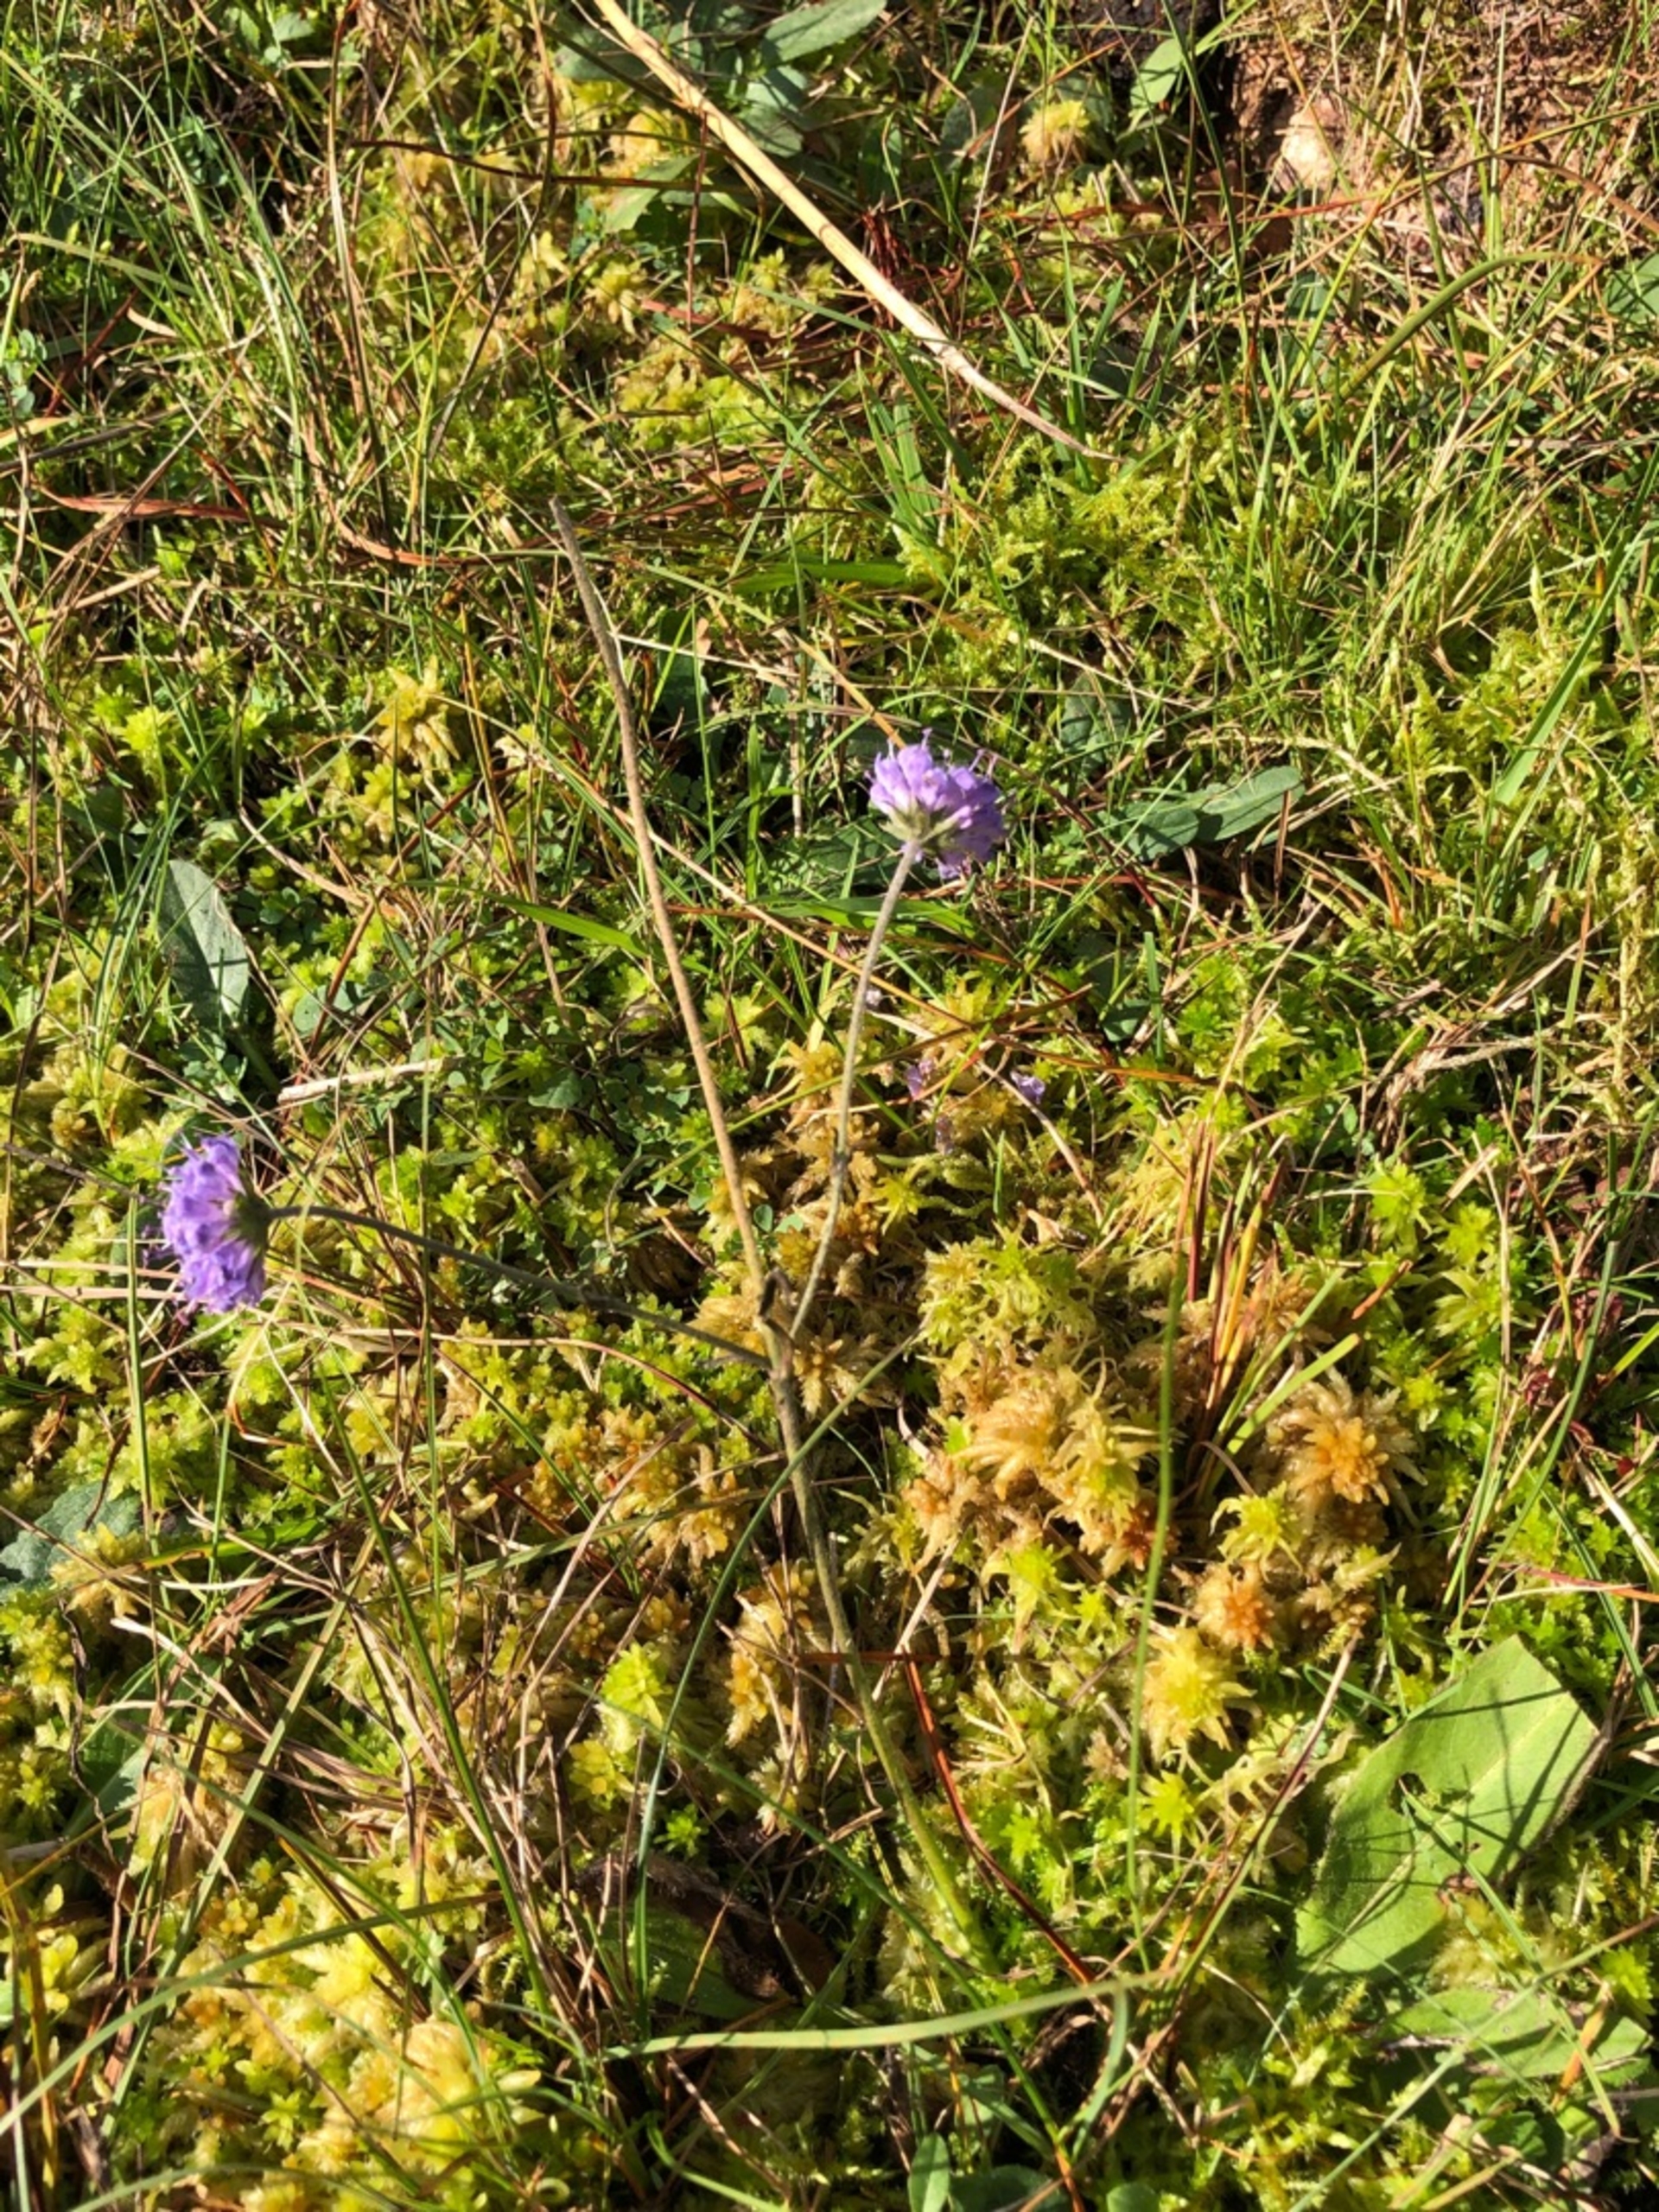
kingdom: Plantae
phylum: Tracheophyta
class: Magnoliopsida
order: Dipsacales
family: Caprifoliaceae
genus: Succisa
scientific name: Succisa pratensis
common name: Djævelsbid
